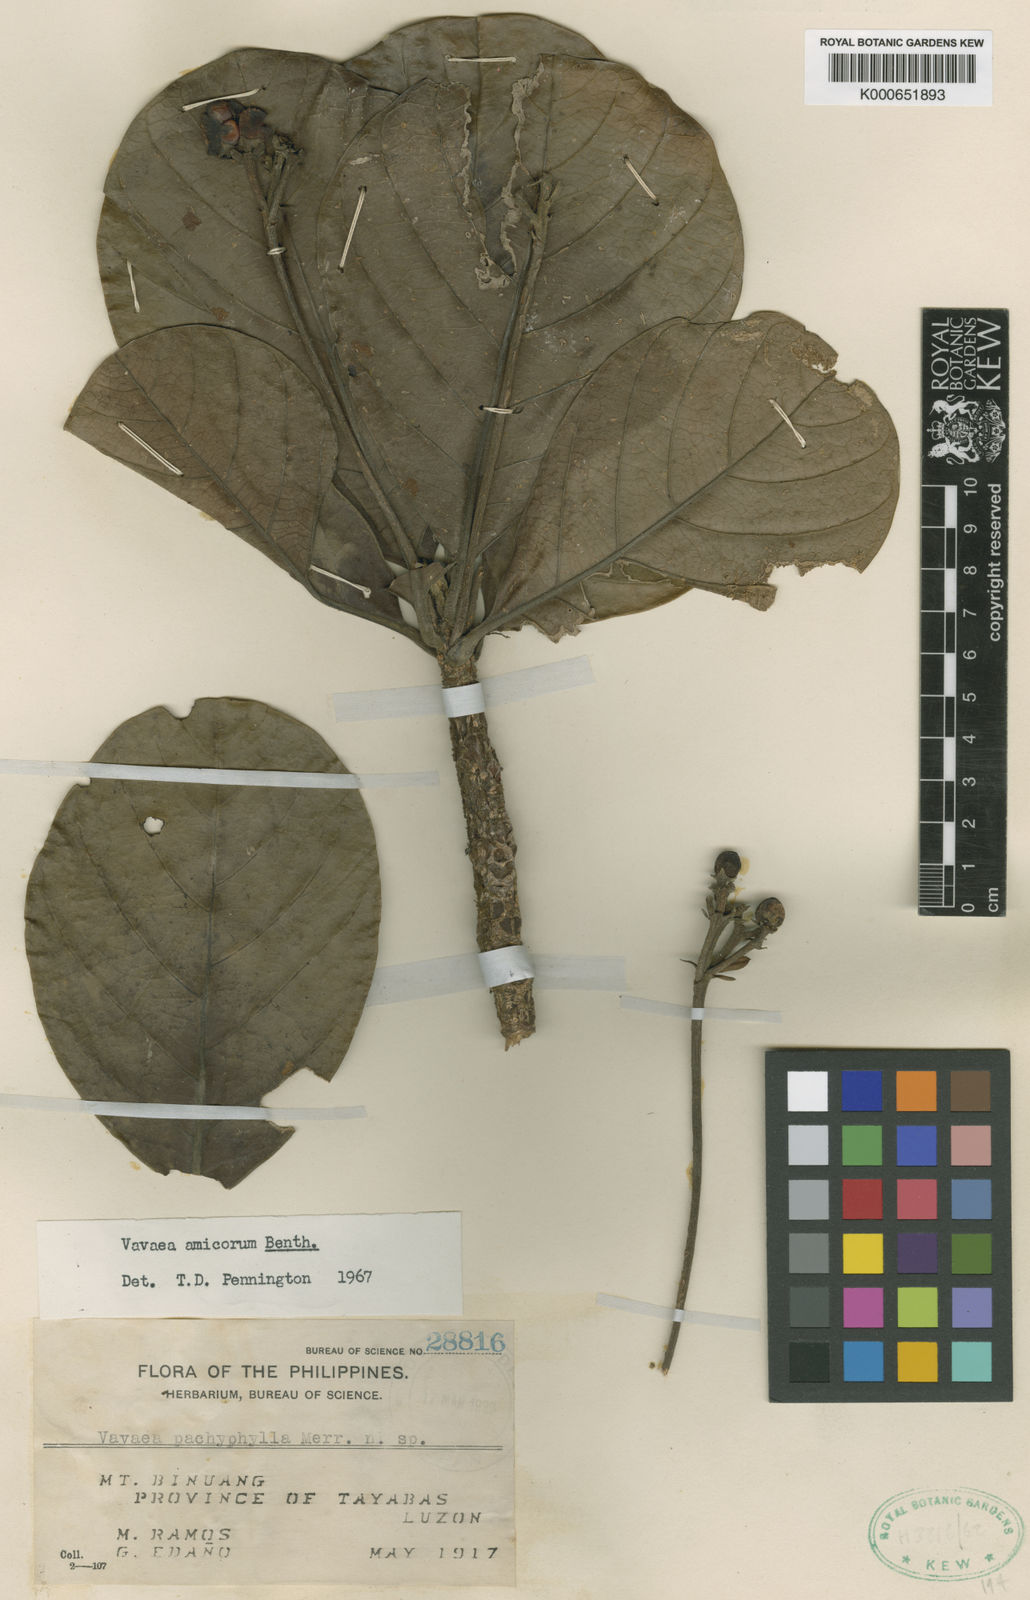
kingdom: Plantae
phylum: Tracheophyta
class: Magnoliopsida
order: Sapindales
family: Meliaceae
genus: Vavaea
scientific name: Vavaea amicorum
